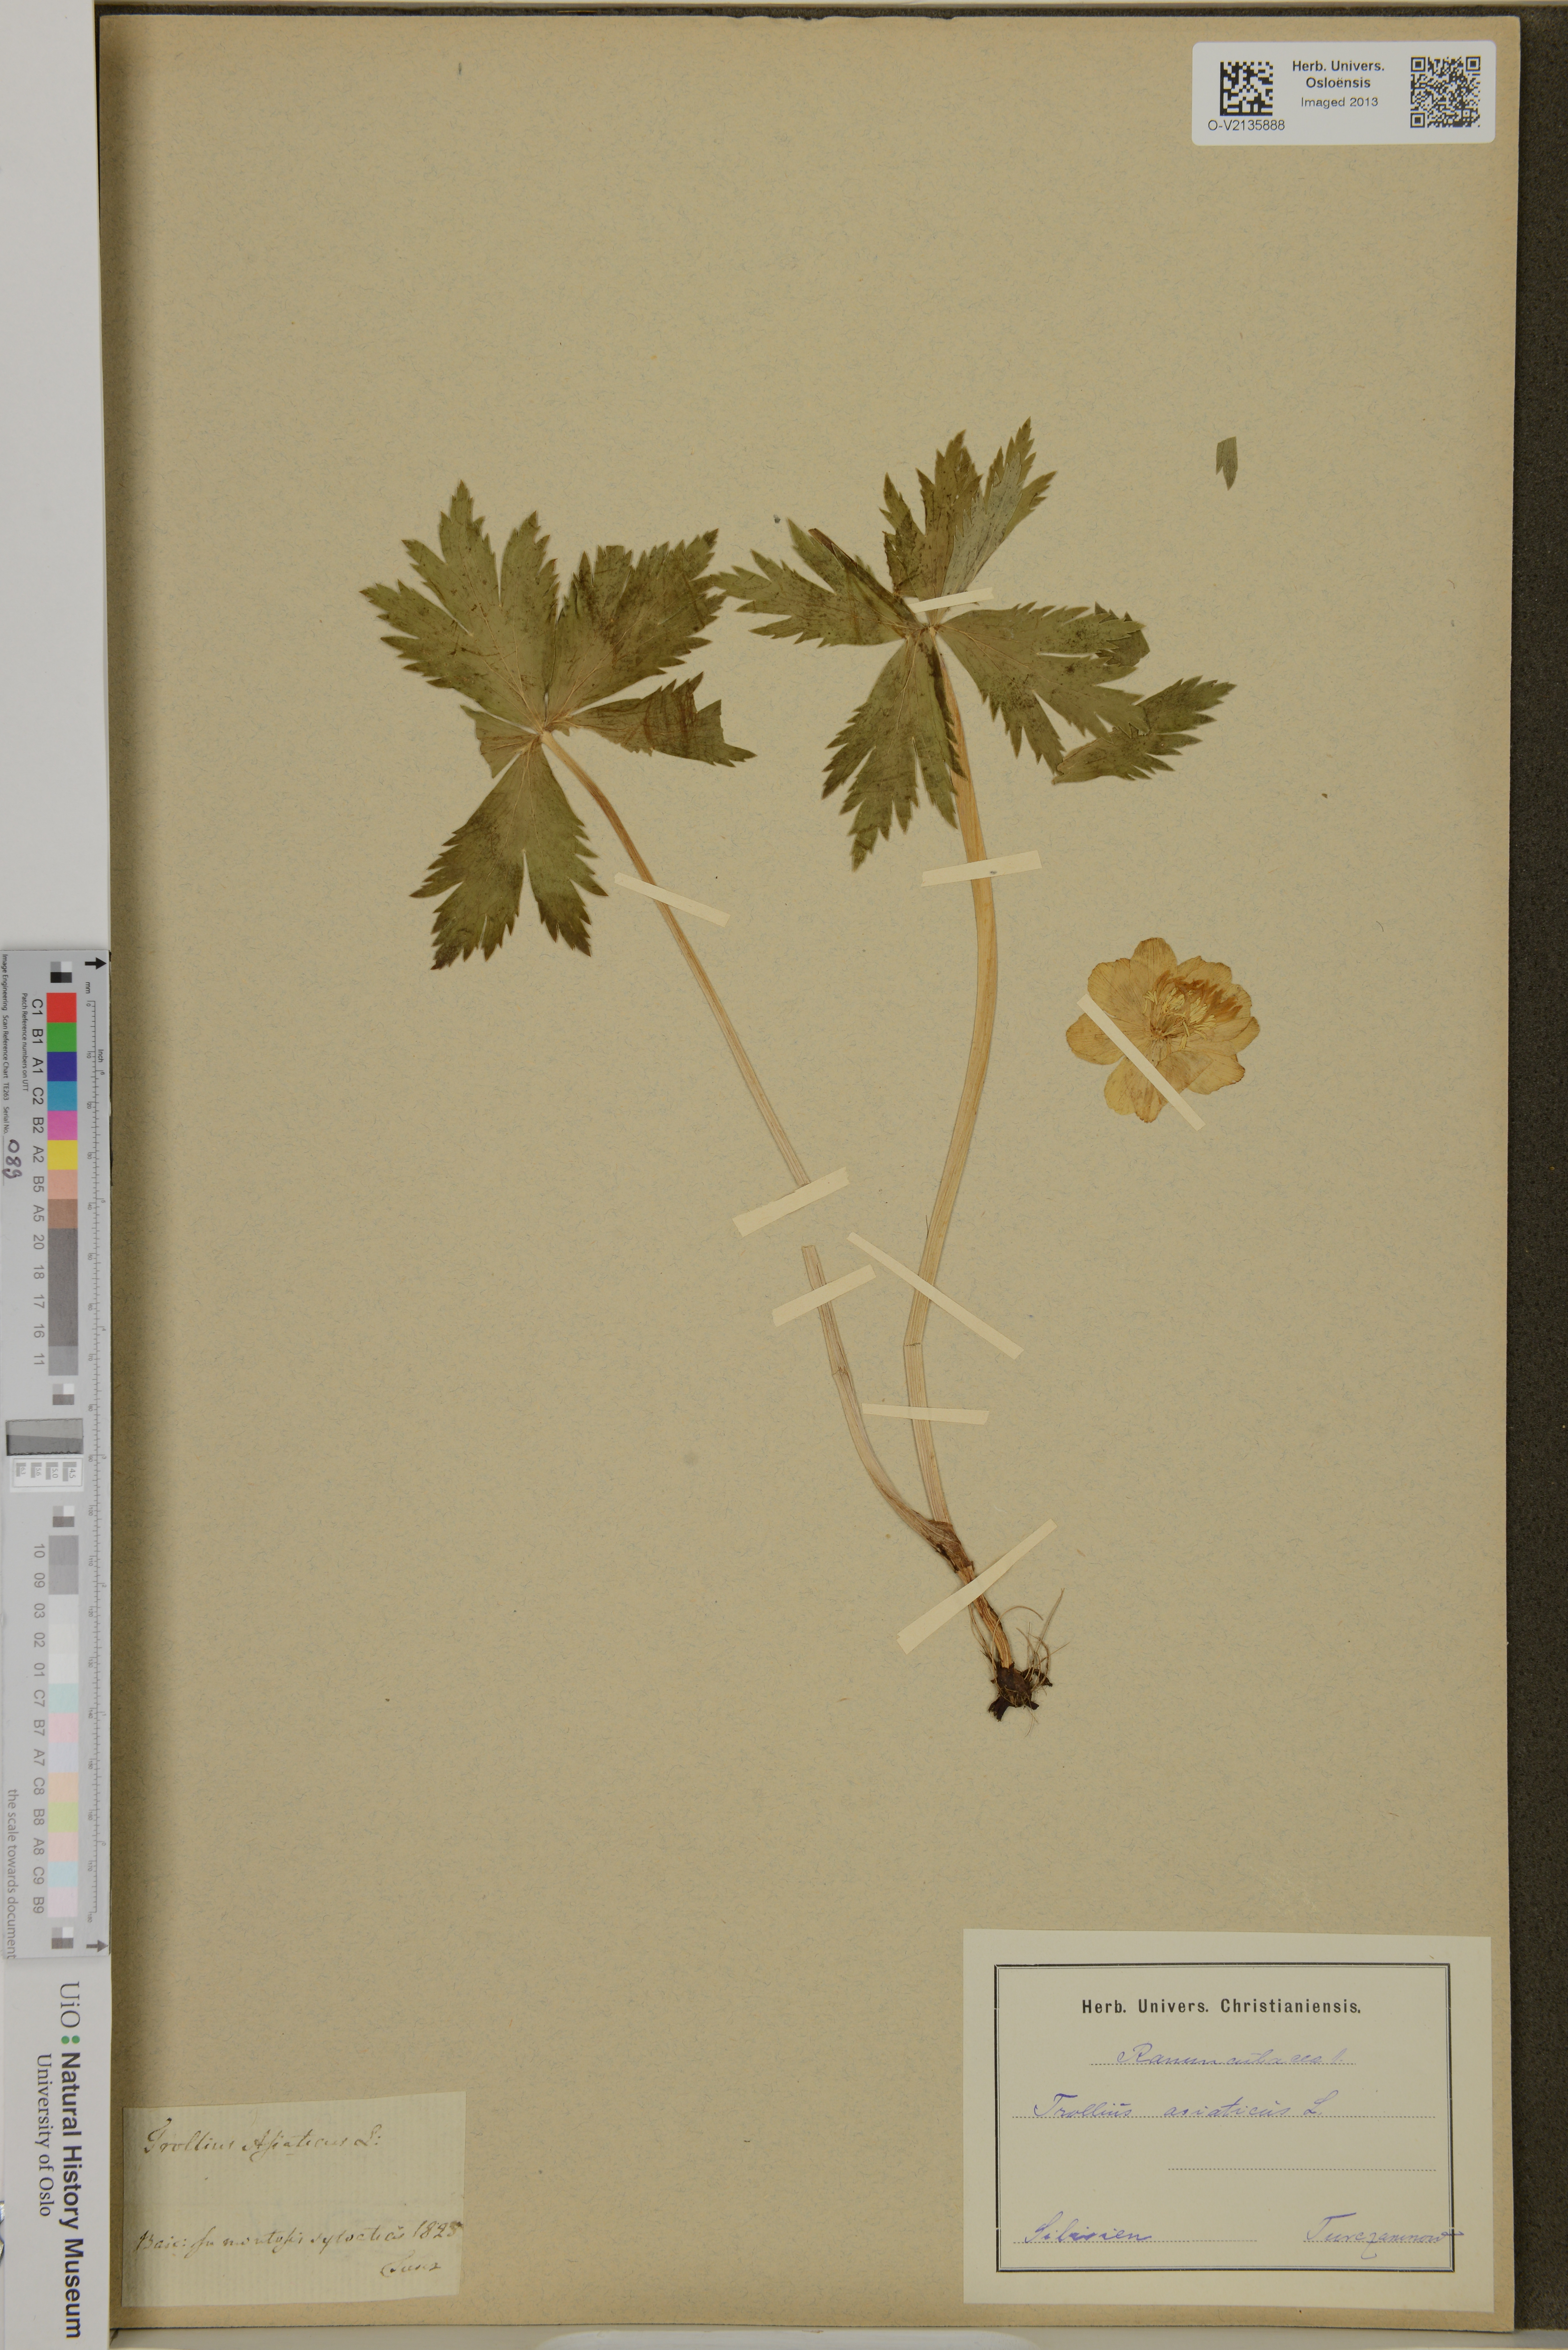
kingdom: Plantae
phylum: Tracheophyta
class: Magnoliopsida
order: Ranunculales
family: Ranunculaceae
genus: Trollius
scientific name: Trollius asiaticus
